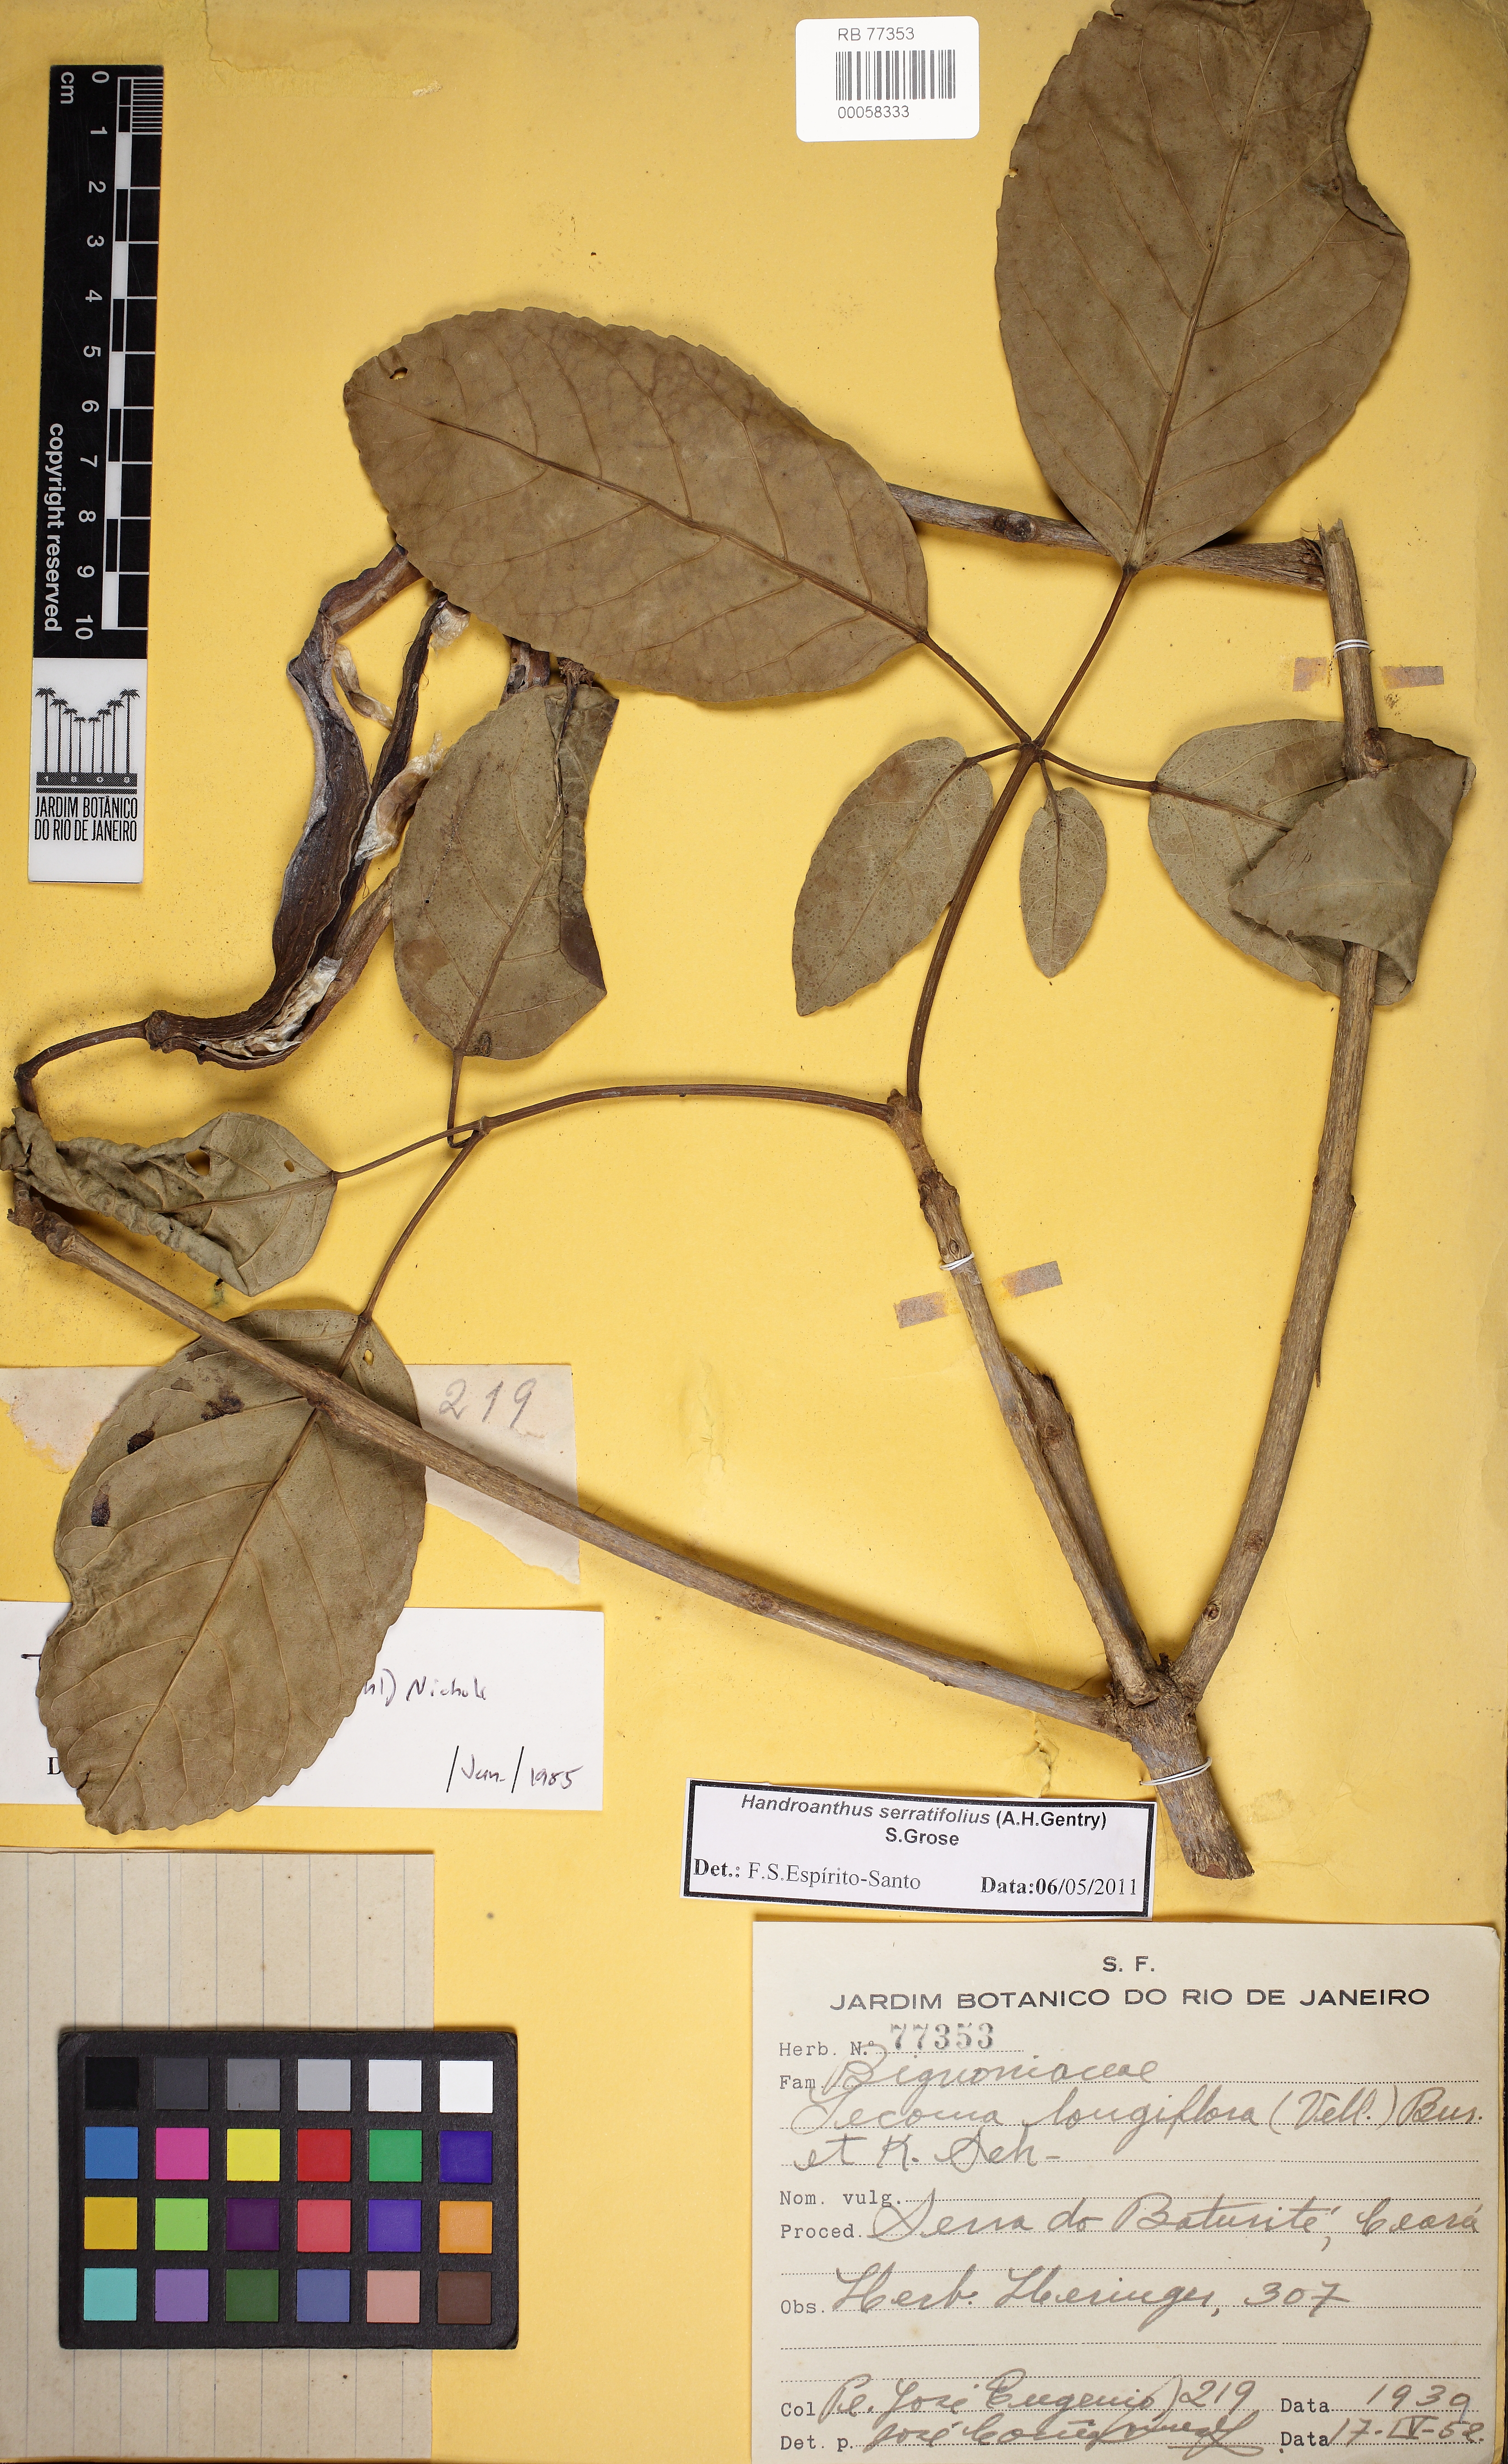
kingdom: Plantae
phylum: Tracheophyta
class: Magnoliopsida
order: Lamiales
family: Bignoniaceae
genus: Handroanthus
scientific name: Handroanthus serratifolius
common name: Yellow ipe
